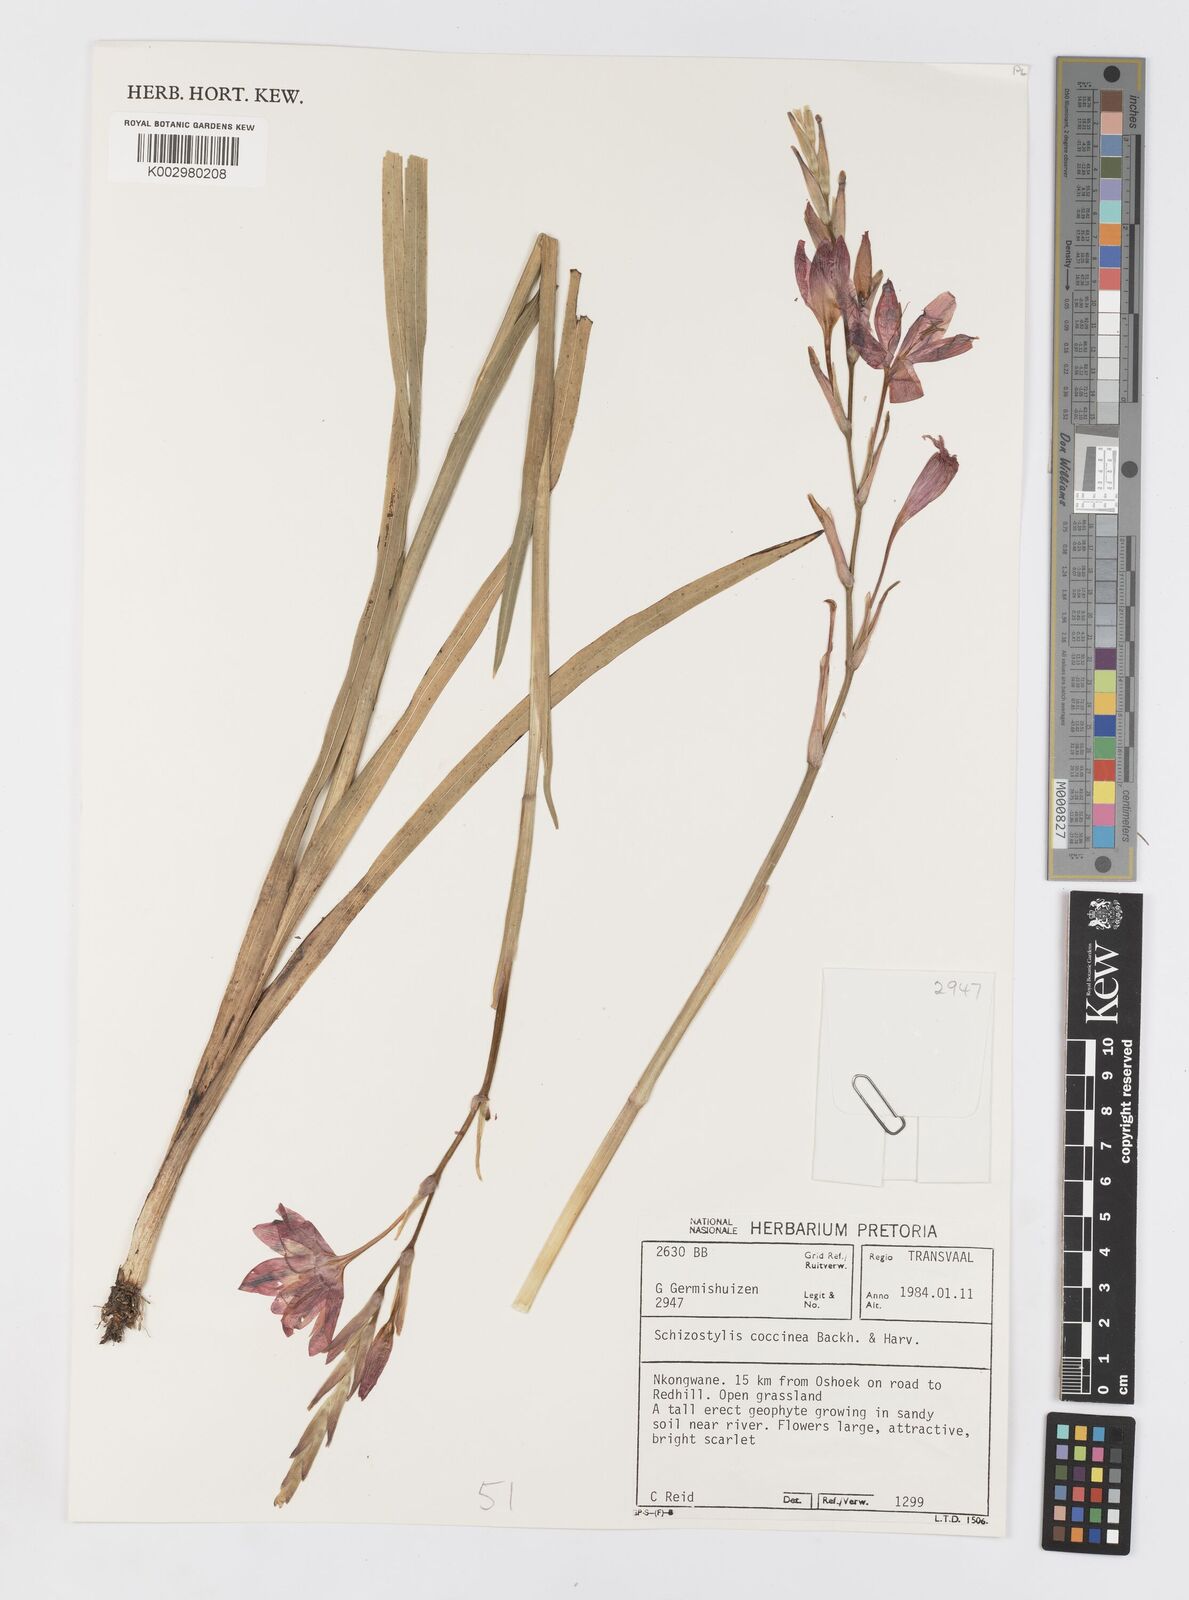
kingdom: Plantae
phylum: Tracheophyta
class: Liliopsida
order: Asparagales
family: Iridaceae
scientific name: Iridaceae
